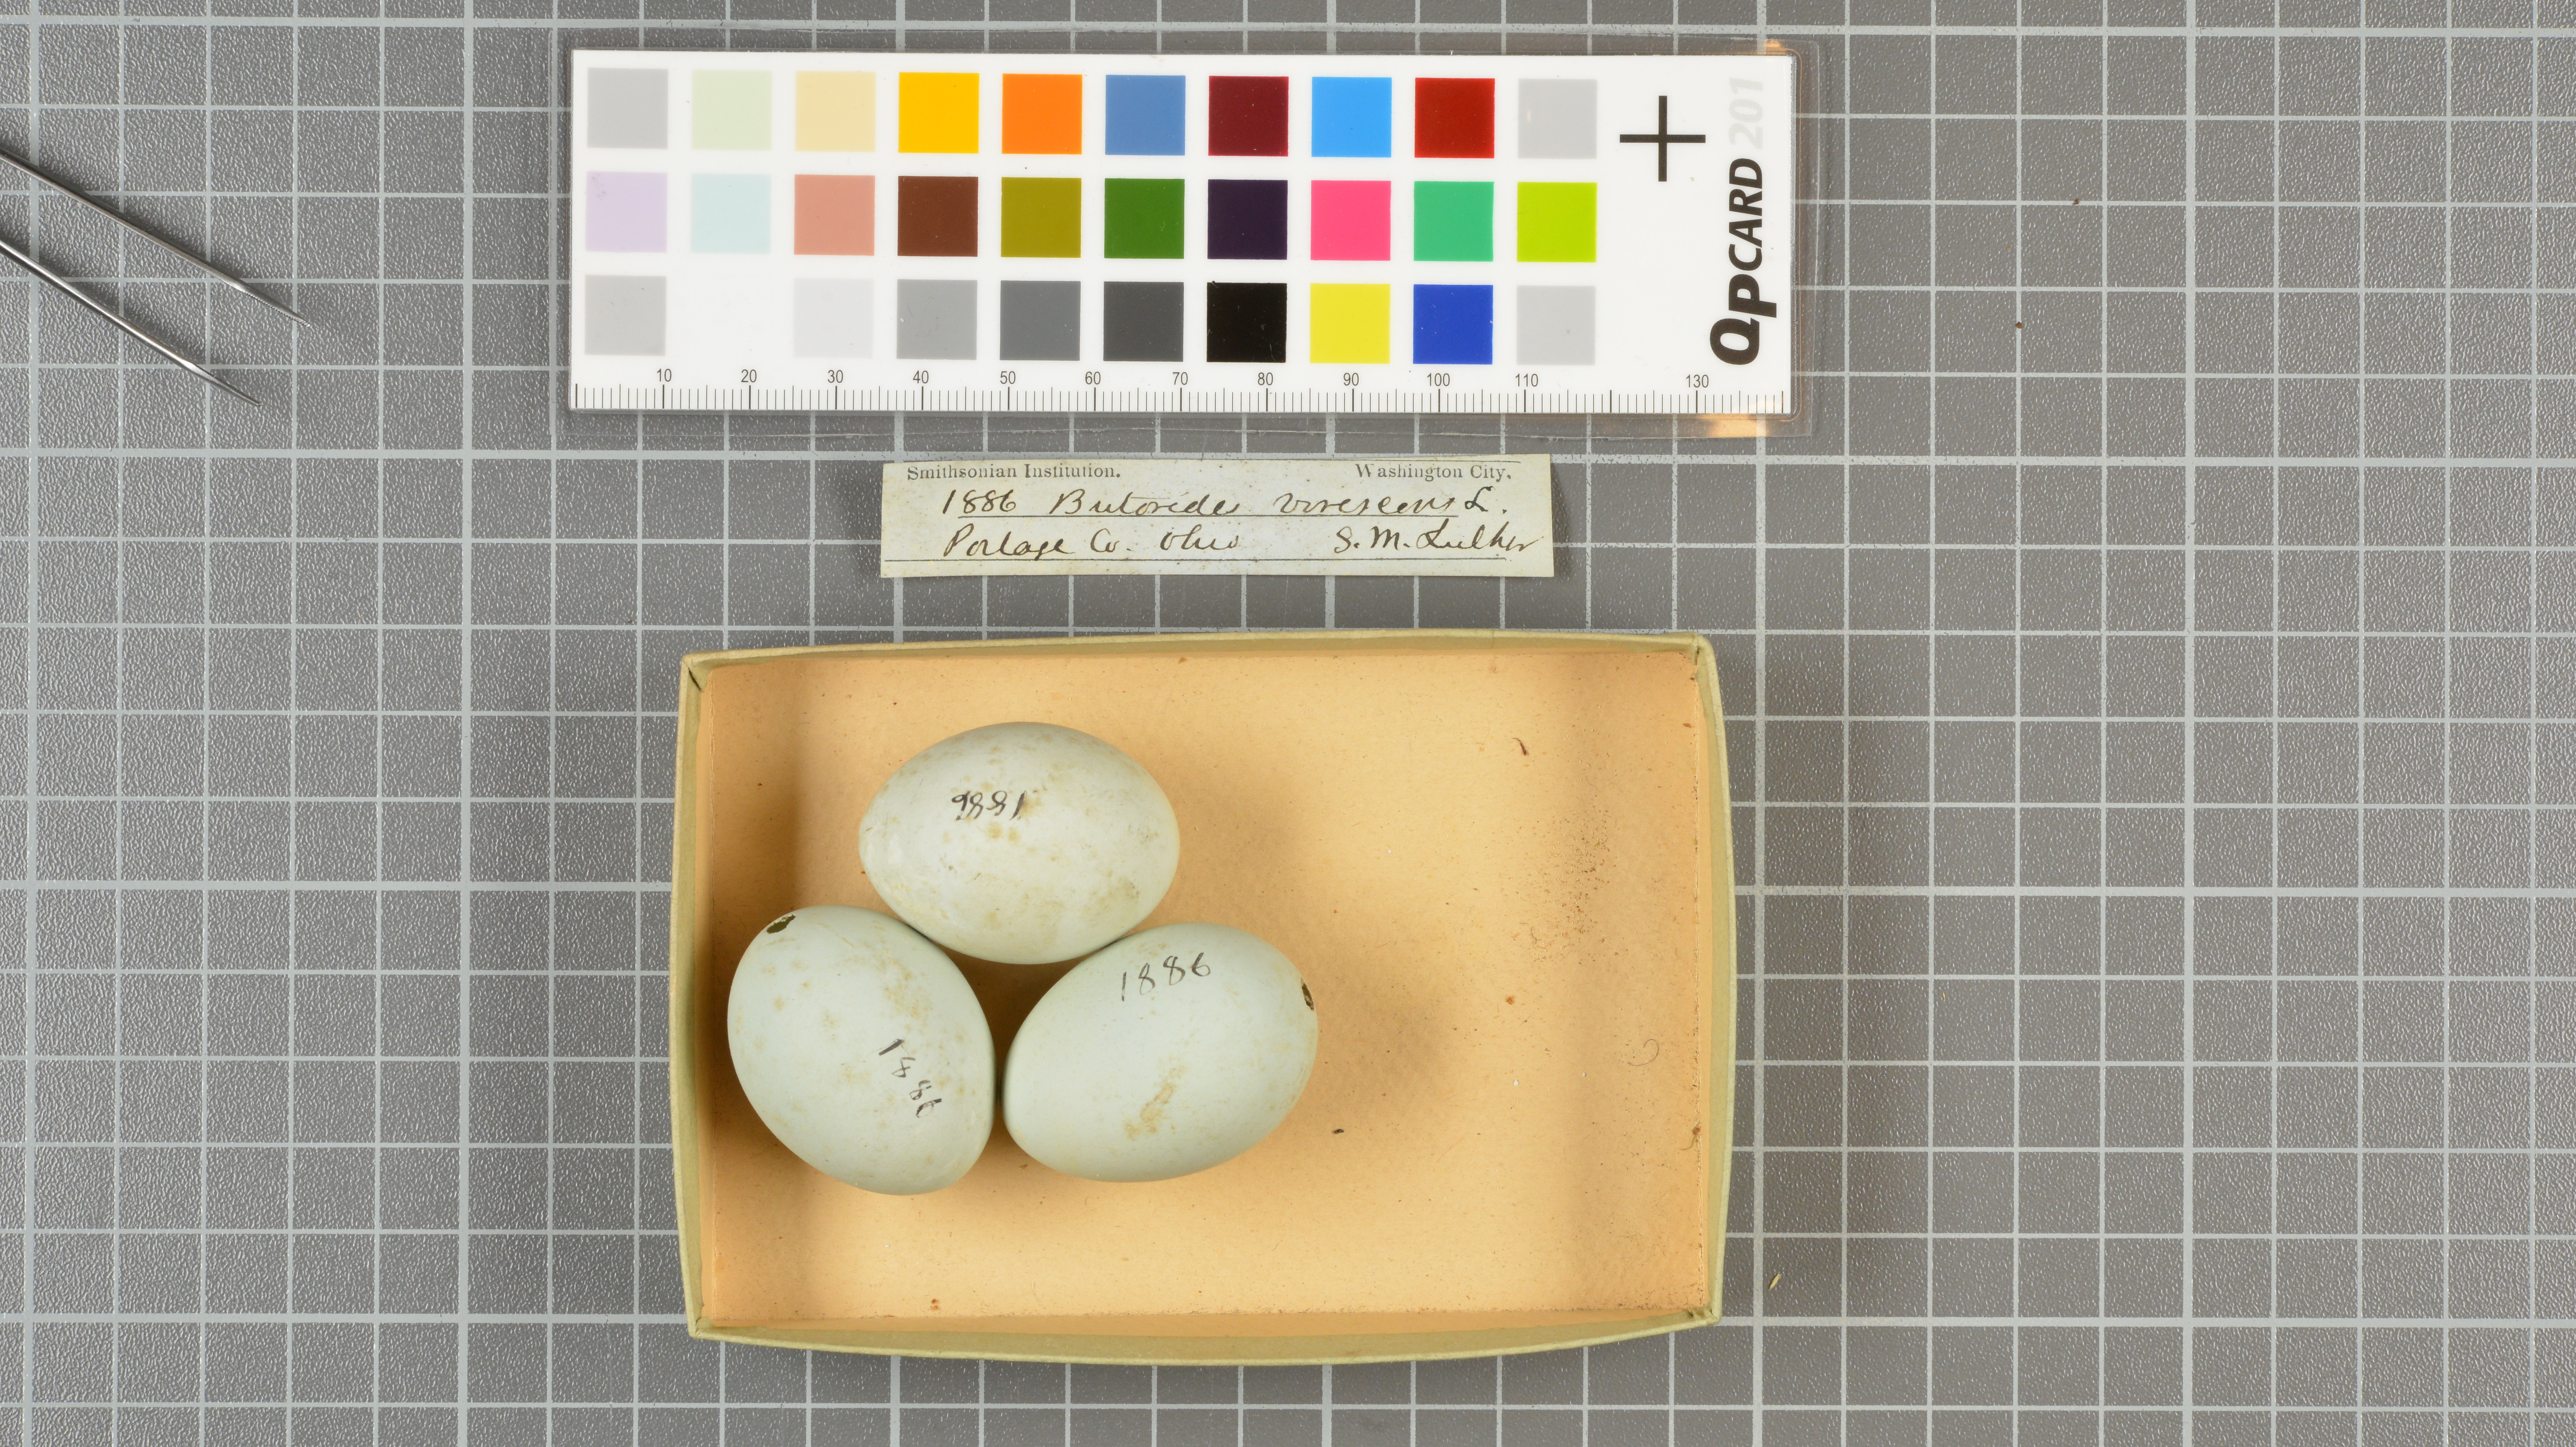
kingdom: Animalia
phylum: Chordata
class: Aves
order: Pelecaniformes
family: Ardeidae
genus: Butorides
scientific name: Butorides virescens
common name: Green heron
